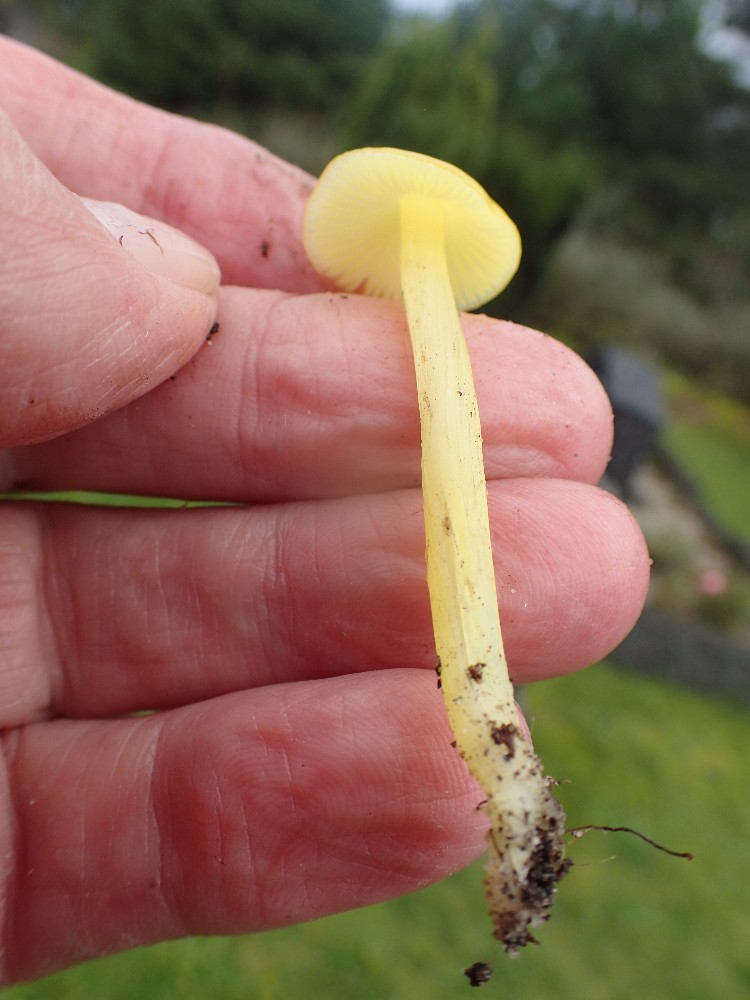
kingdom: Fungi
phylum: Basidiomycota
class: Agaricomycetes
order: Agaricales
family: Hygrophoraceae
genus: Hygrocybe
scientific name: Hygrocybe
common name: vokshat
